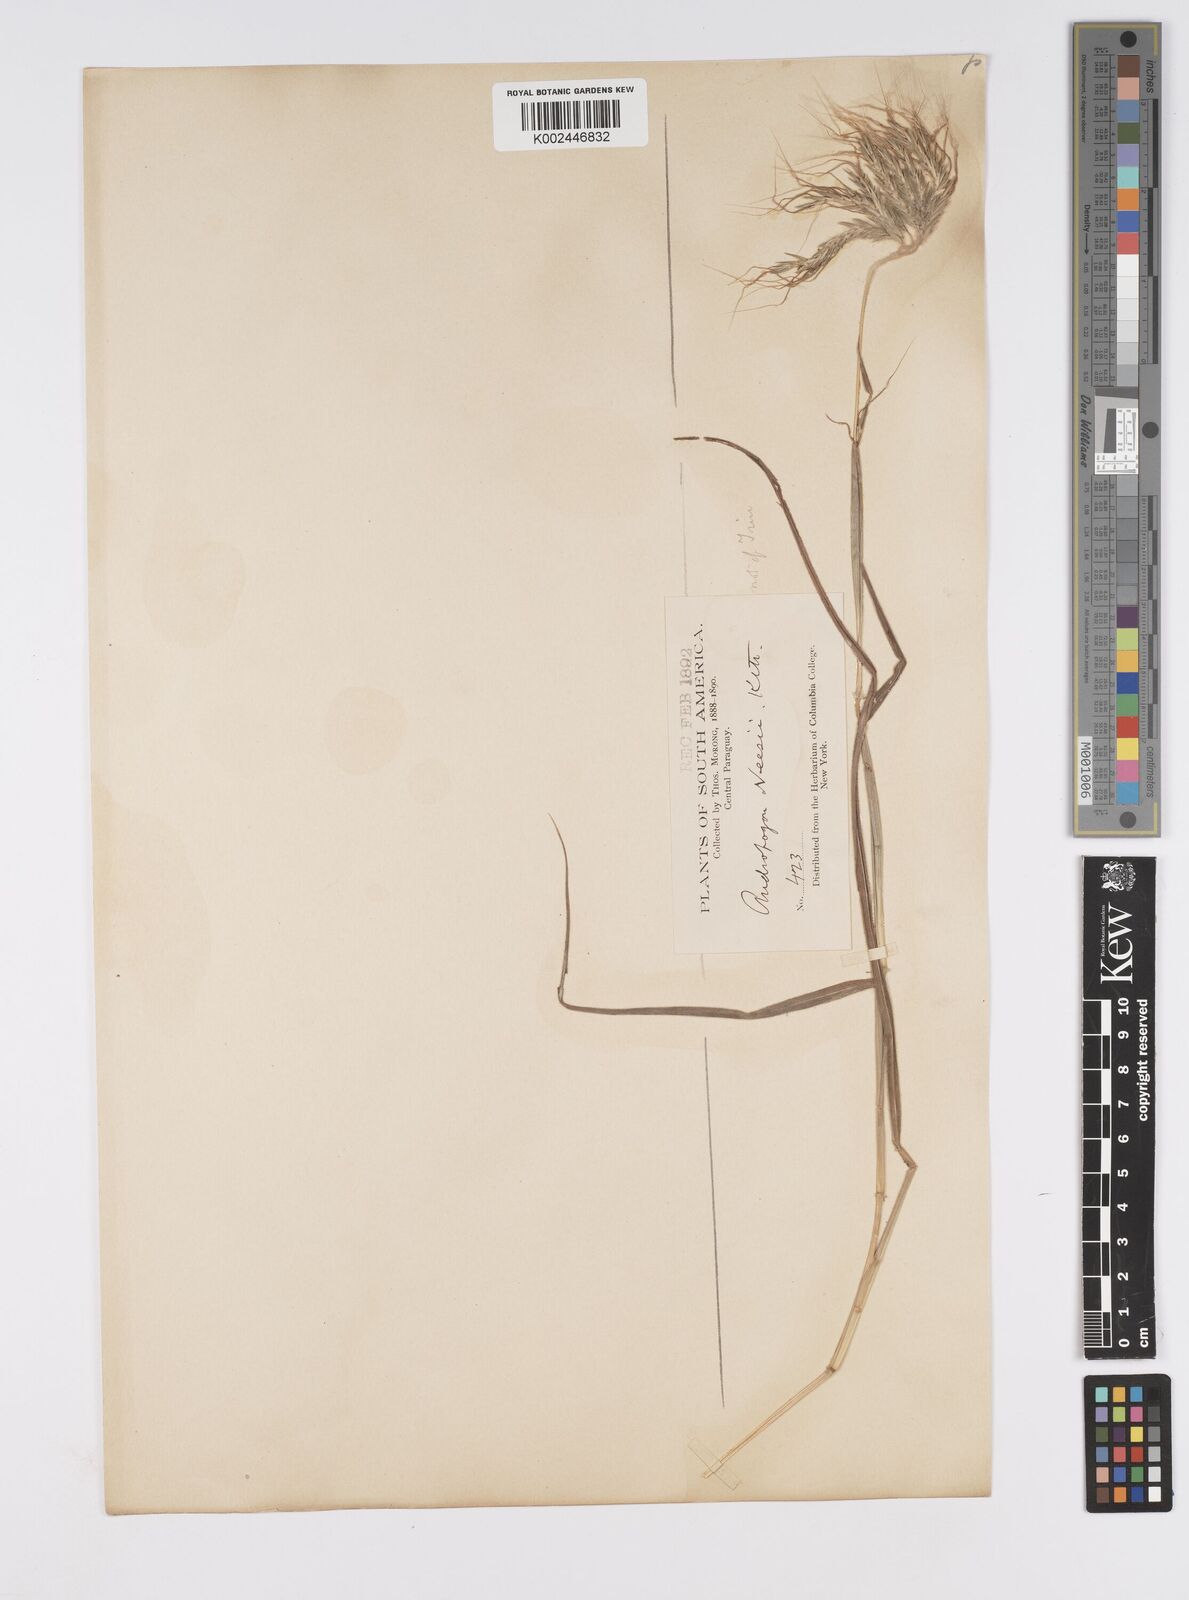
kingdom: Plantae
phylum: Tracheophyta
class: Liliopsida
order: Poales
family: Poaceae
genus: Agenium
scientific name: Agenium villosum
